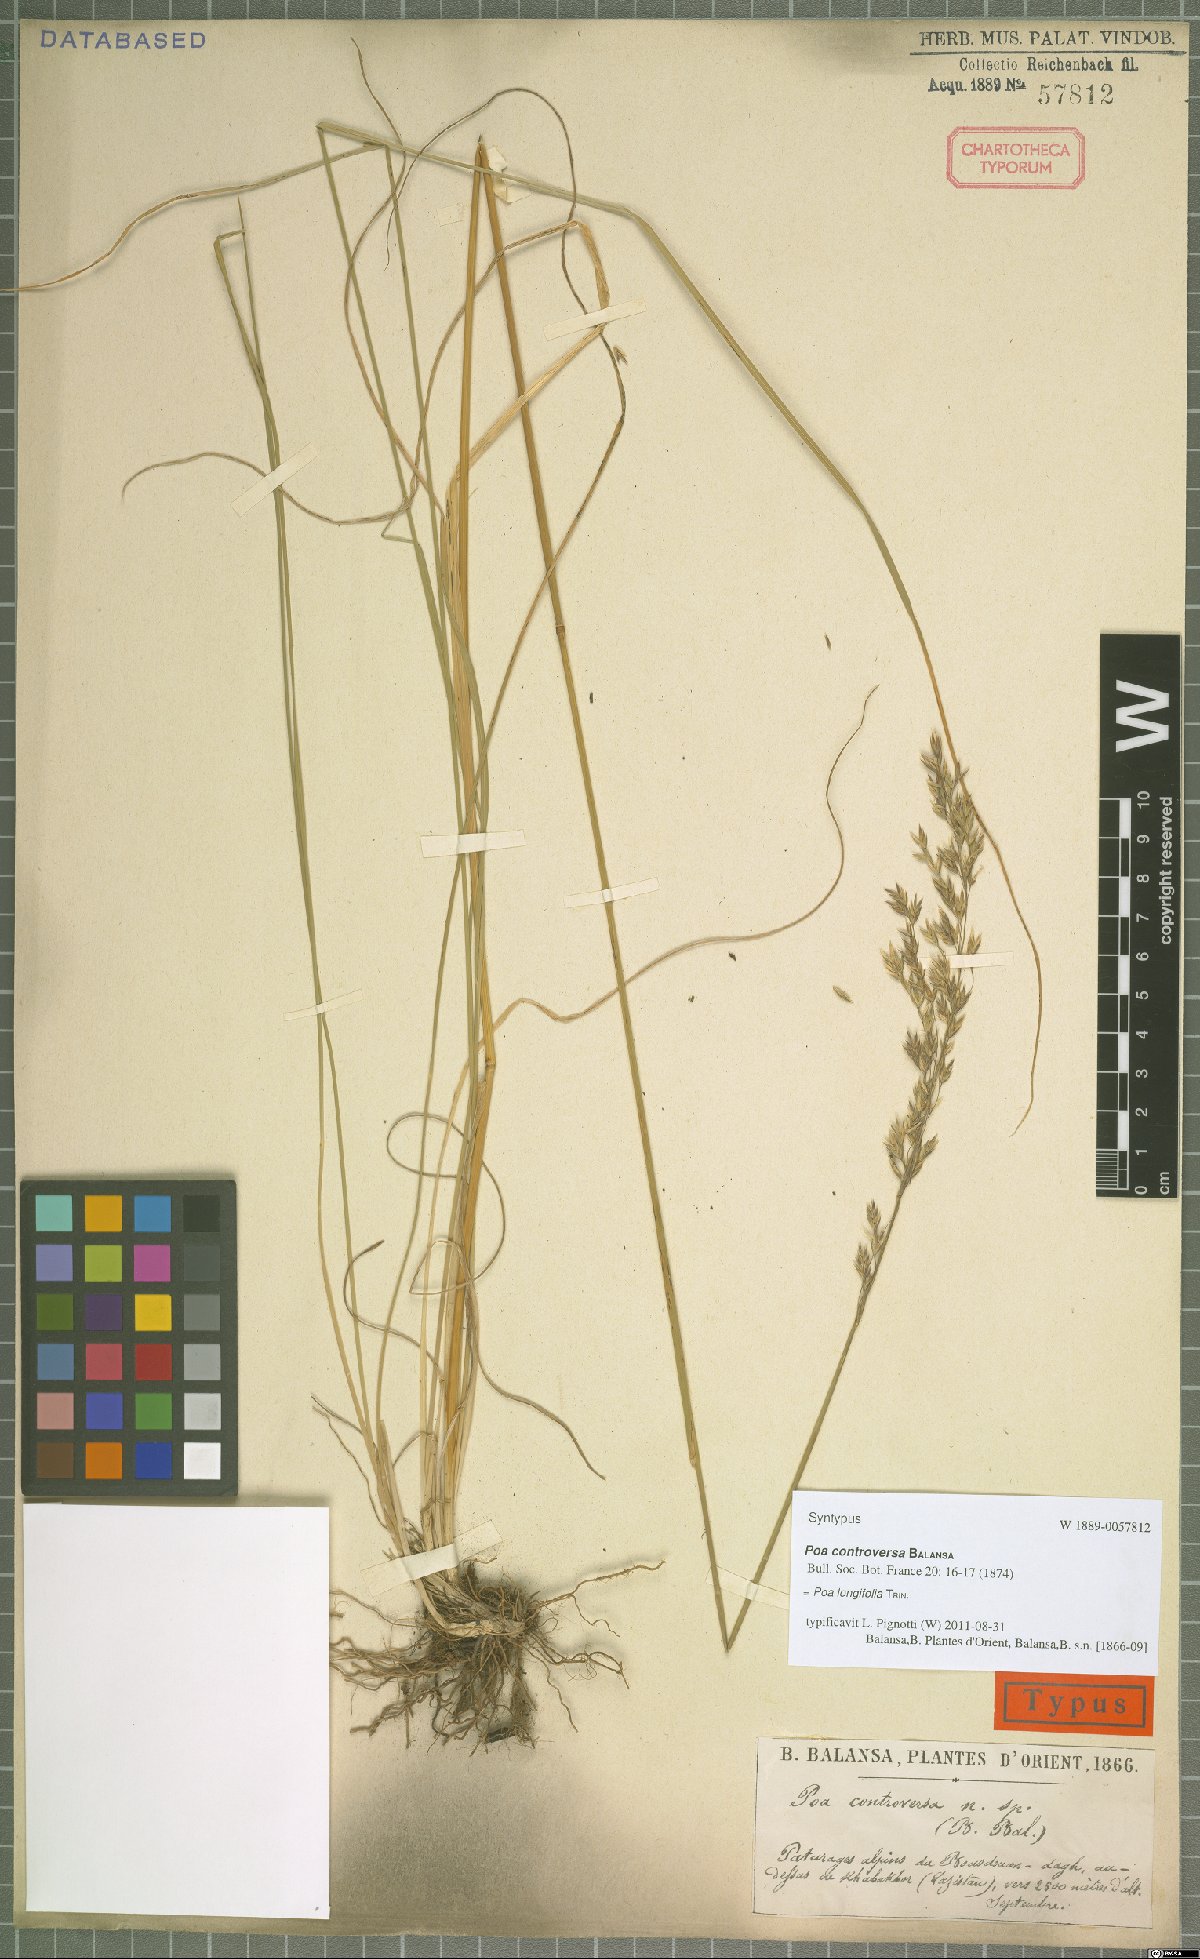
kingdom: Plantae
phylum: Tracheophyta
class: Liliopsida
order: Poales
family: Poaceae
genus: Poa
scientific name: Poa longifolia
